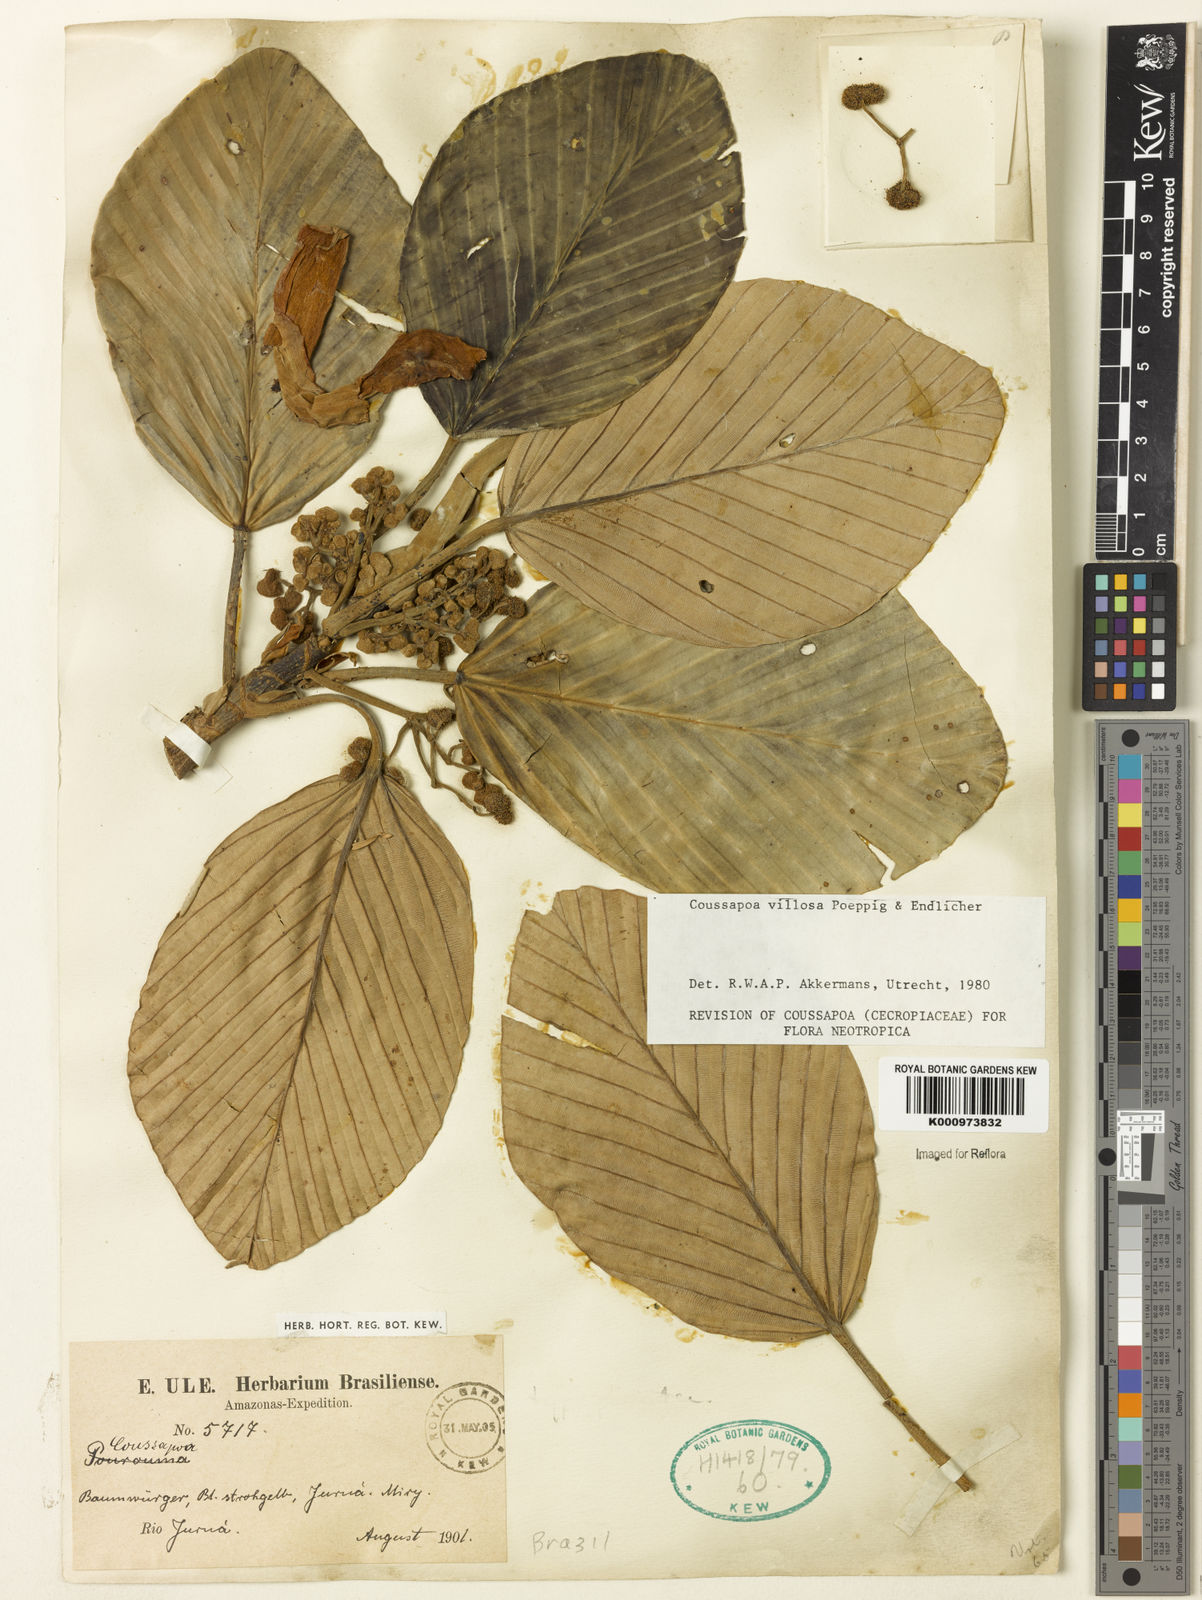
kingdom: Plantae
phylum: Tracheophyta
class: Magnoliopsida
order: Rosales
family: Urticaceae
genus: Coussapoa
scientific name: Coussapoa villosa
